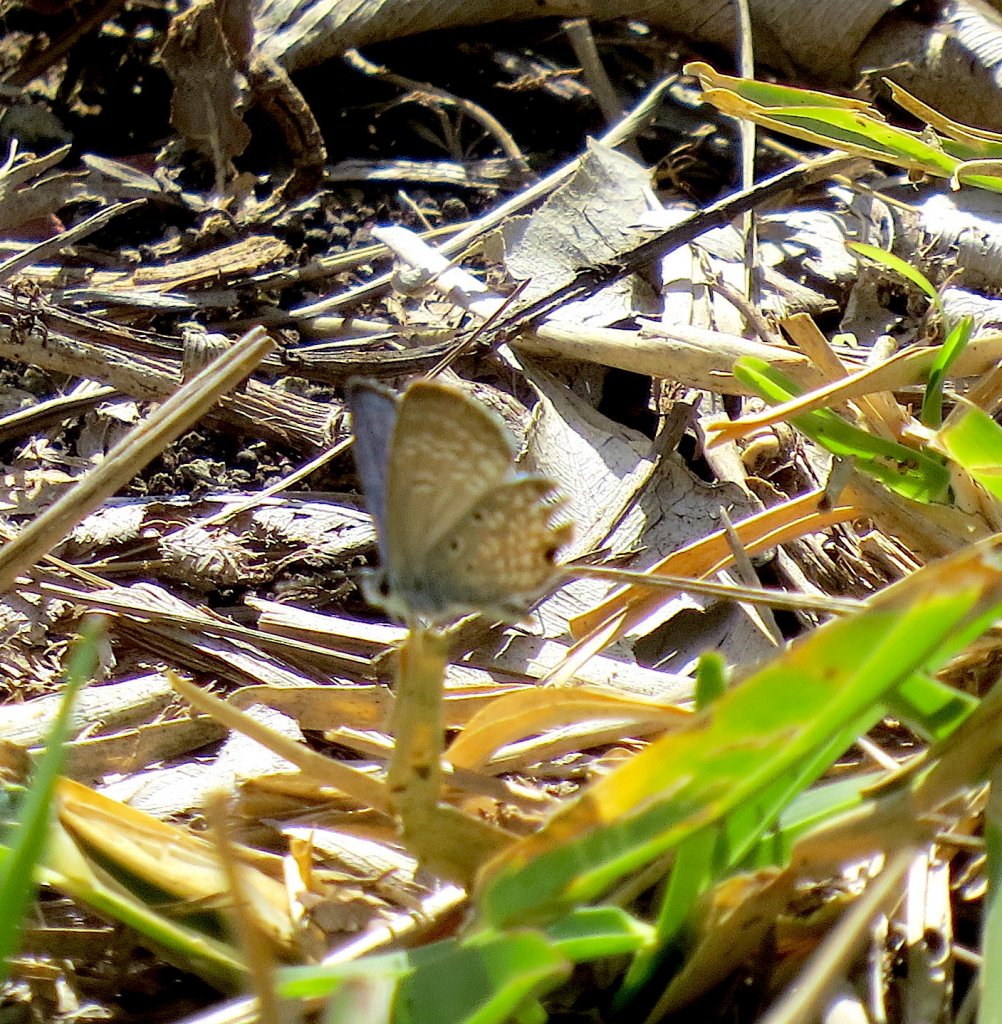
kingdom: Animalia
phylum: Arthropoda
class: Insecta
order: Lepidoptera
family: Lycaenidae
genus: Hemiargus
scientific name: Hemiargus ceraunus
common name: Ceraunus Blue
